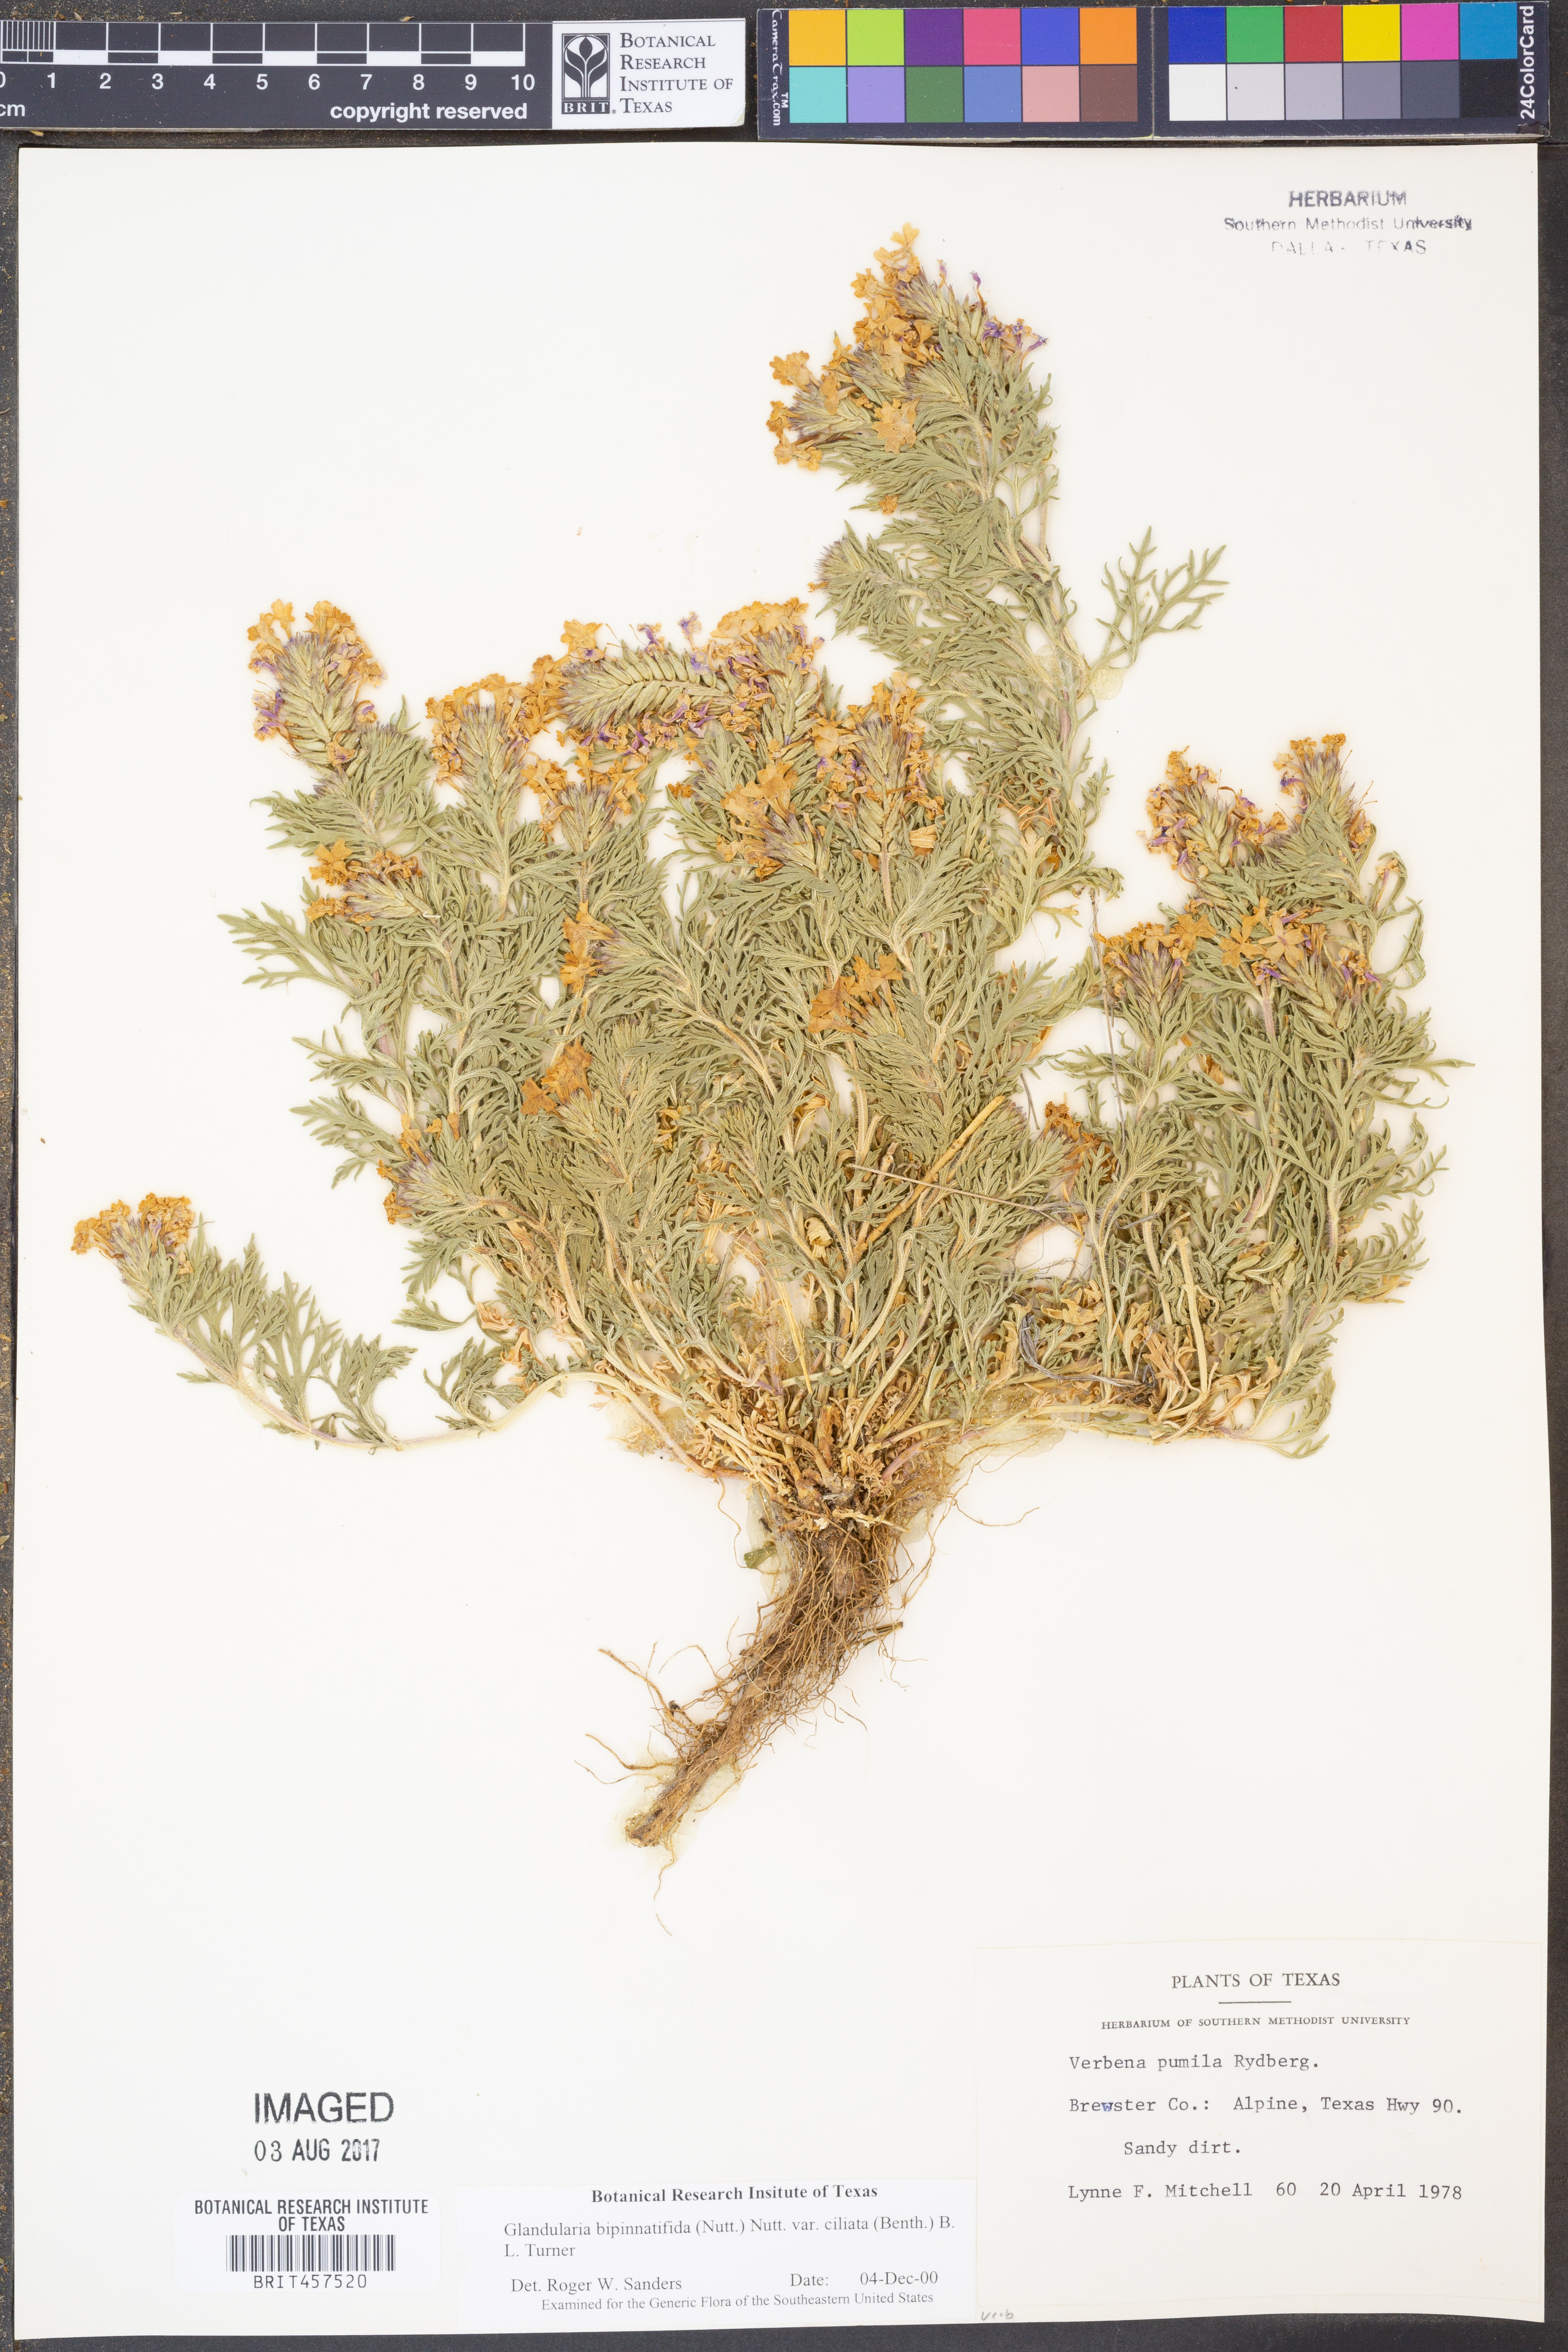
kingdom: Plantae
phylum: Tracheophyta
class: Magnoliopsida
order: Lamiales
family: Verbenaceae
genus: Verbena
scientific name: Verbena bipinnatifida
